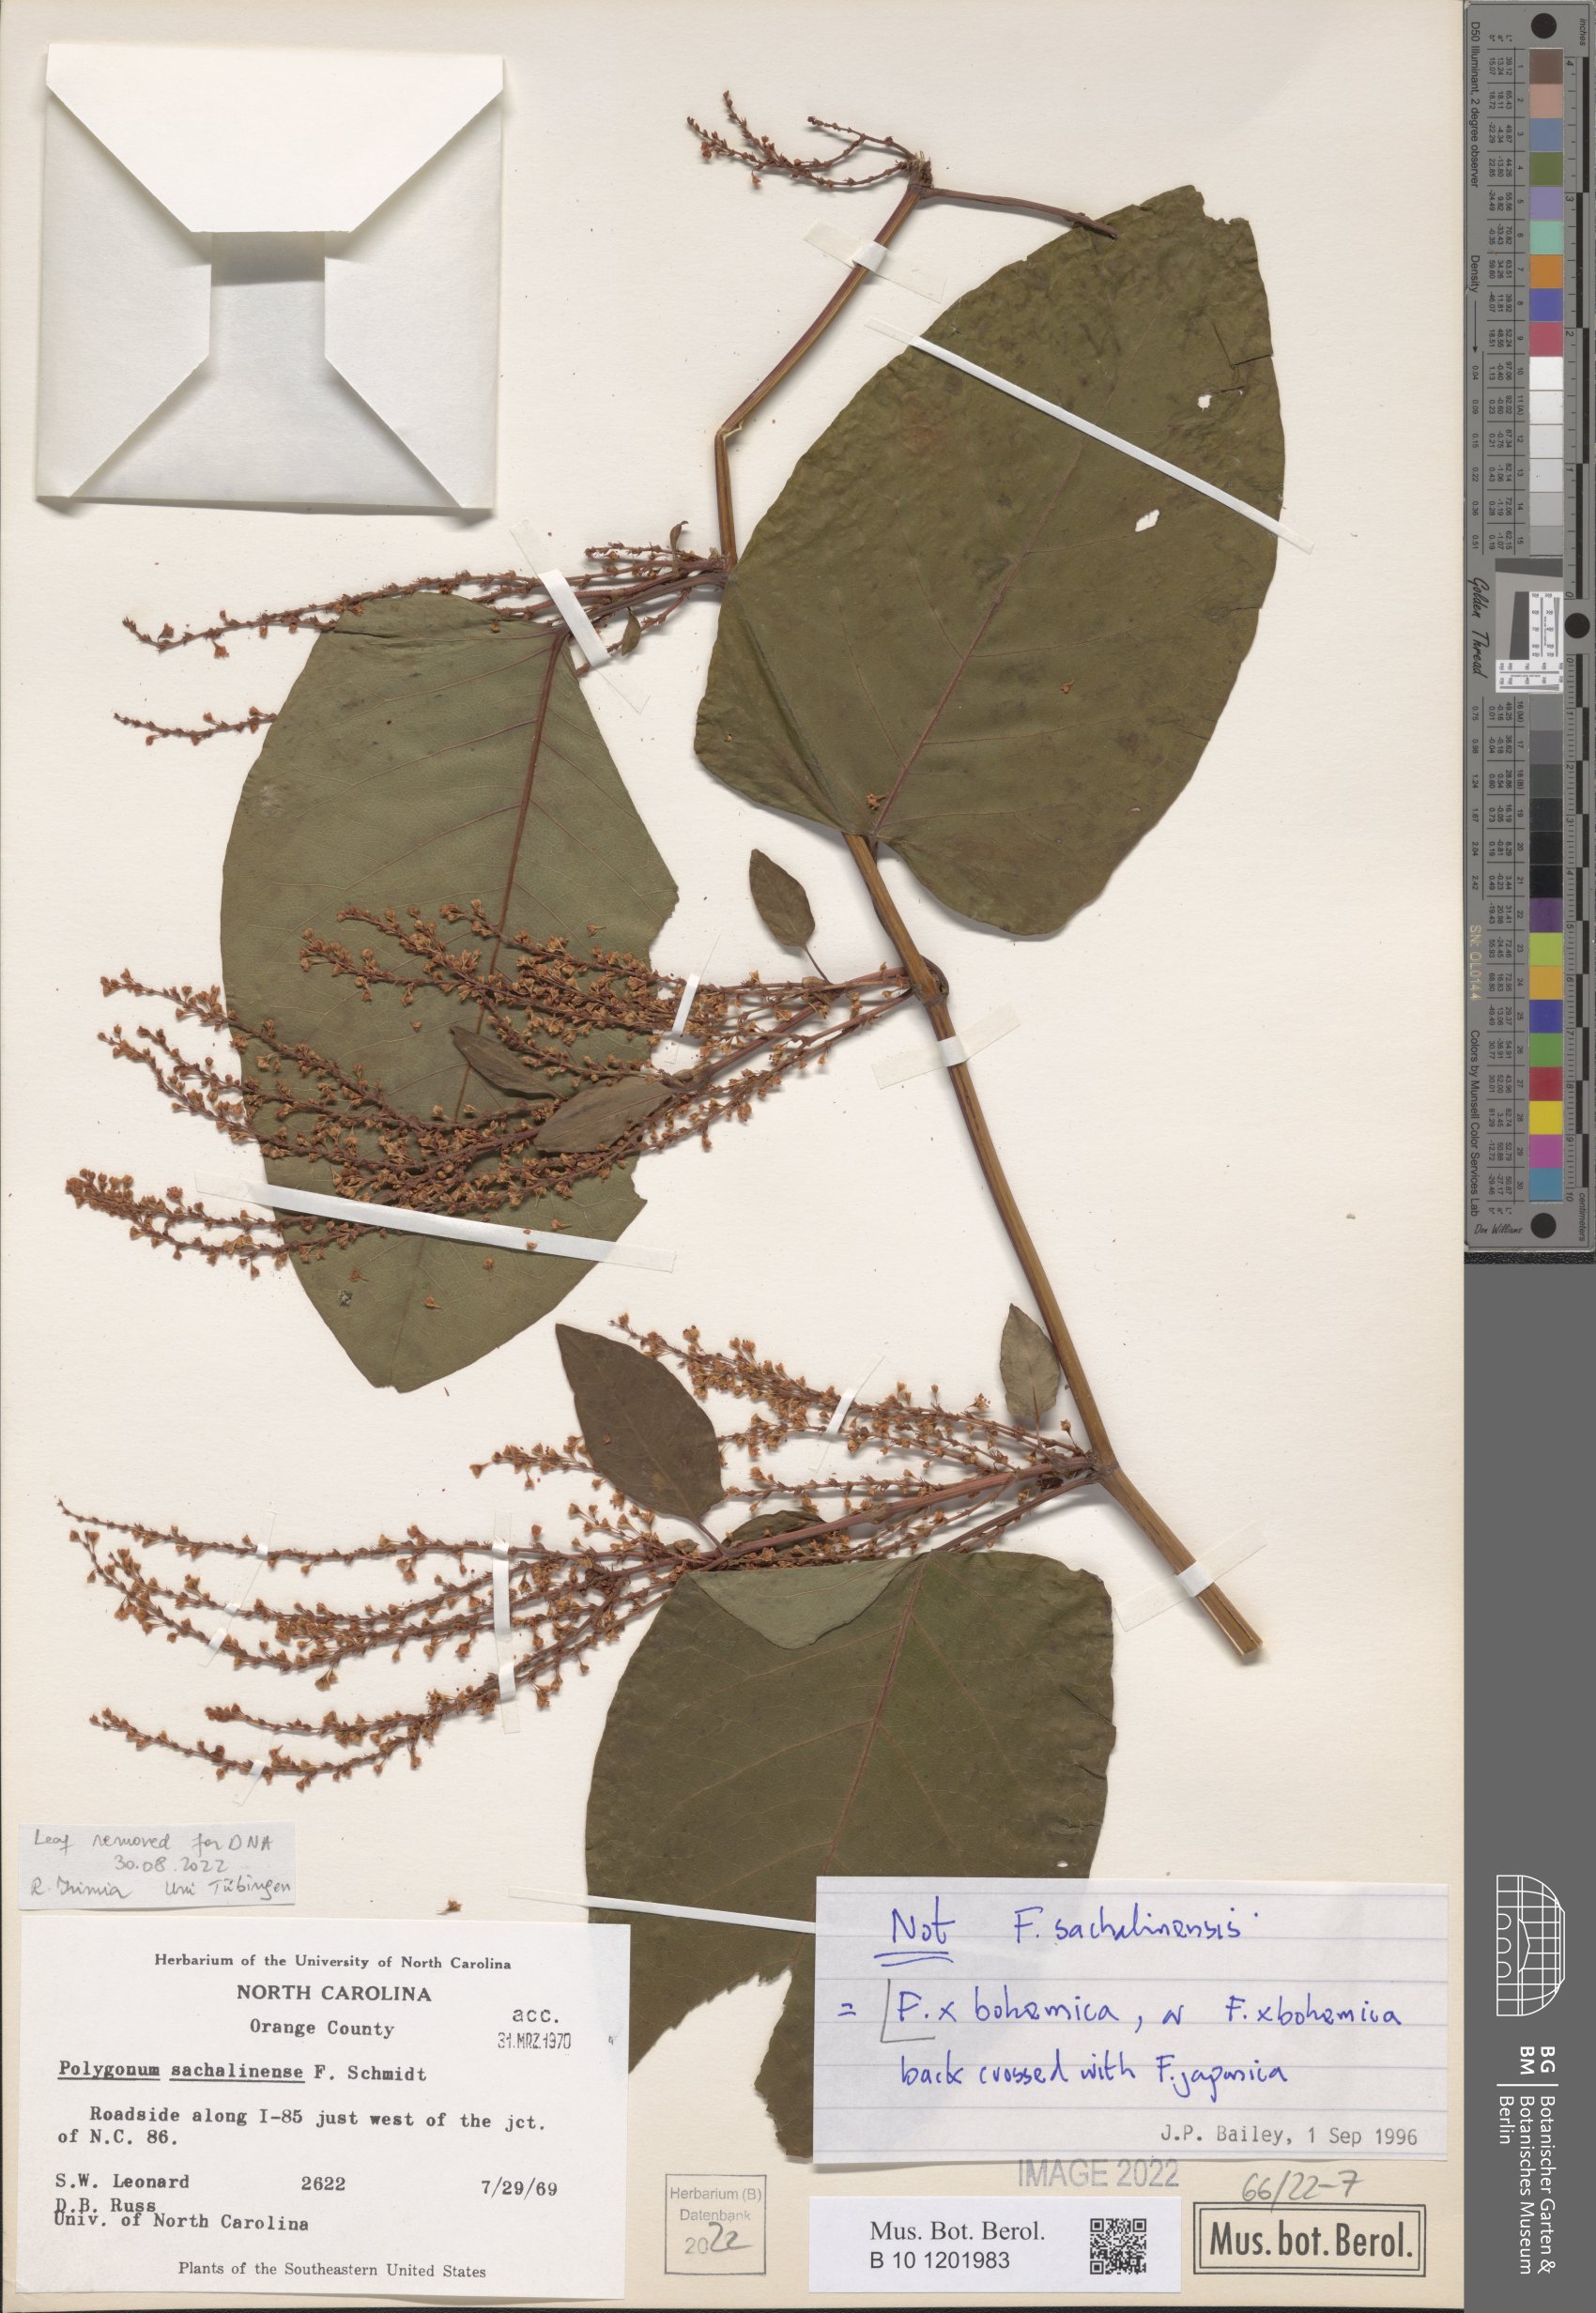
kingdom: Plantae
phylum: Tracheophyta
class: Magnoliopsida
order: Caryophyllales
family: Polygonaceae
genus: Reynoutria
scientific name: Reynoutria bohemica
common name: Bohemian knotweed
